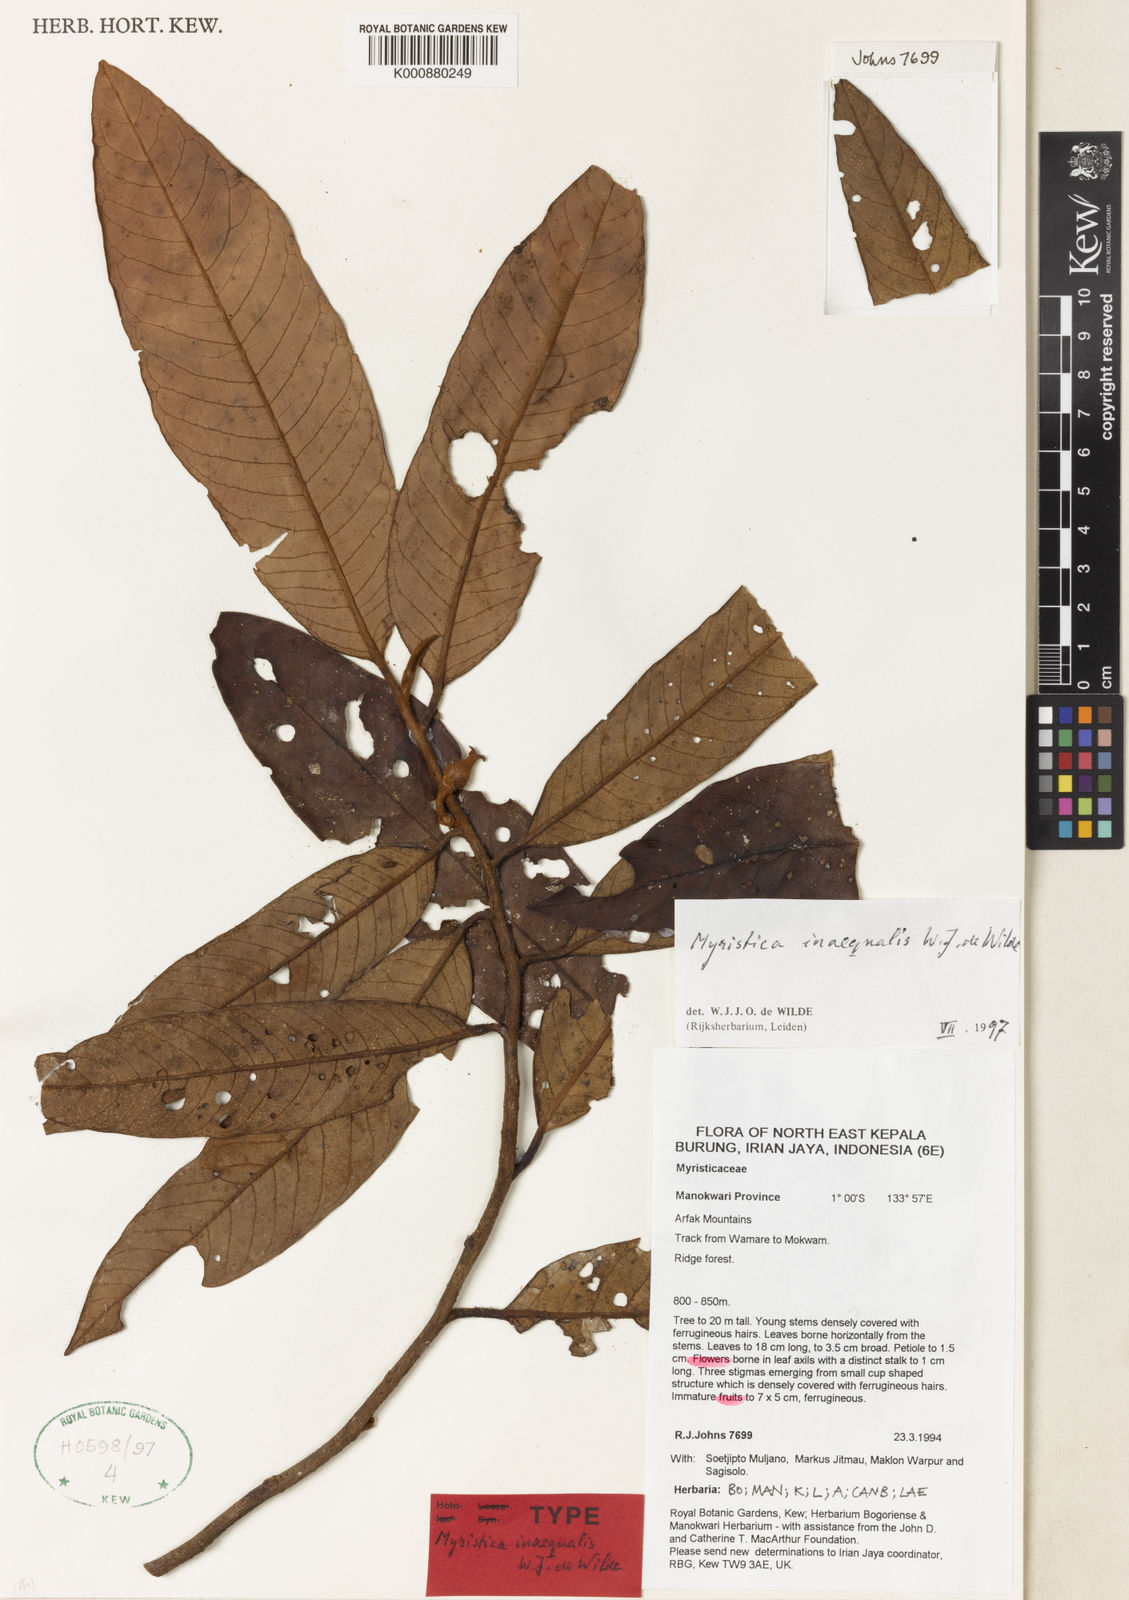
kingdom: Plantae
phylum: Tracheophyta
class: Magnoliopsida
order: Magnoliales
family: Myristicaceae
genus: Myristica
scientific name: Myristica inaequalis
